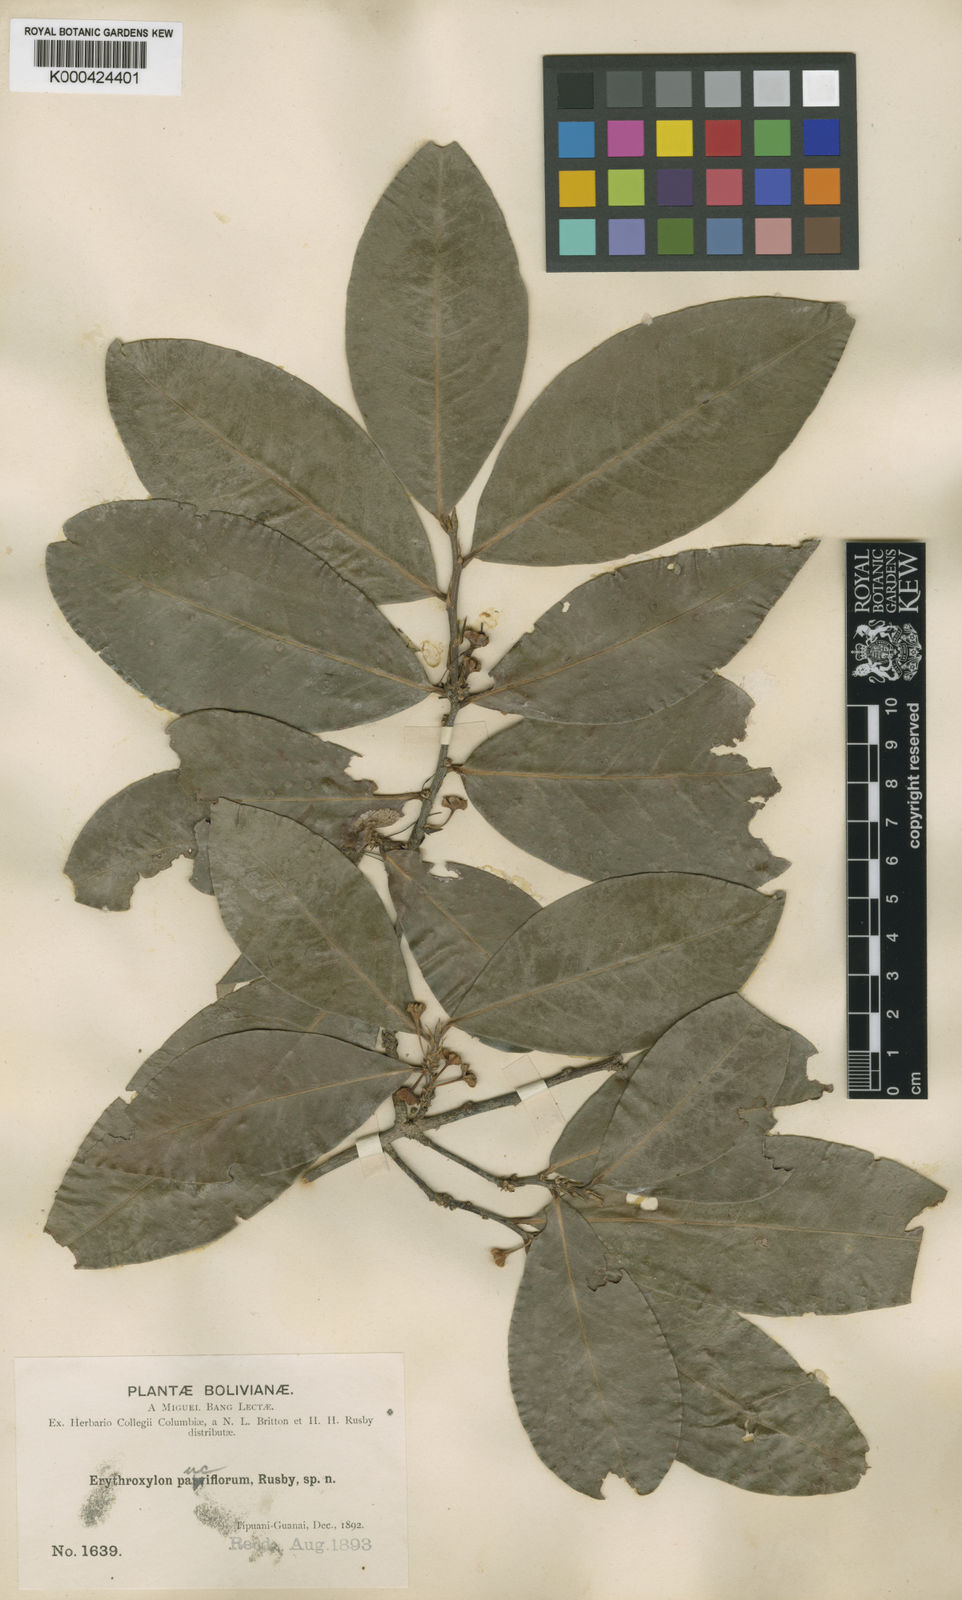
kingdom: Plantae
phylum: Tracheophyta
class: Magnoliopsida
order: Malpighiales
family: Erythroxylaceae
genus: Erythroxylum
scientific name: Erythroxylum pauciflorum
